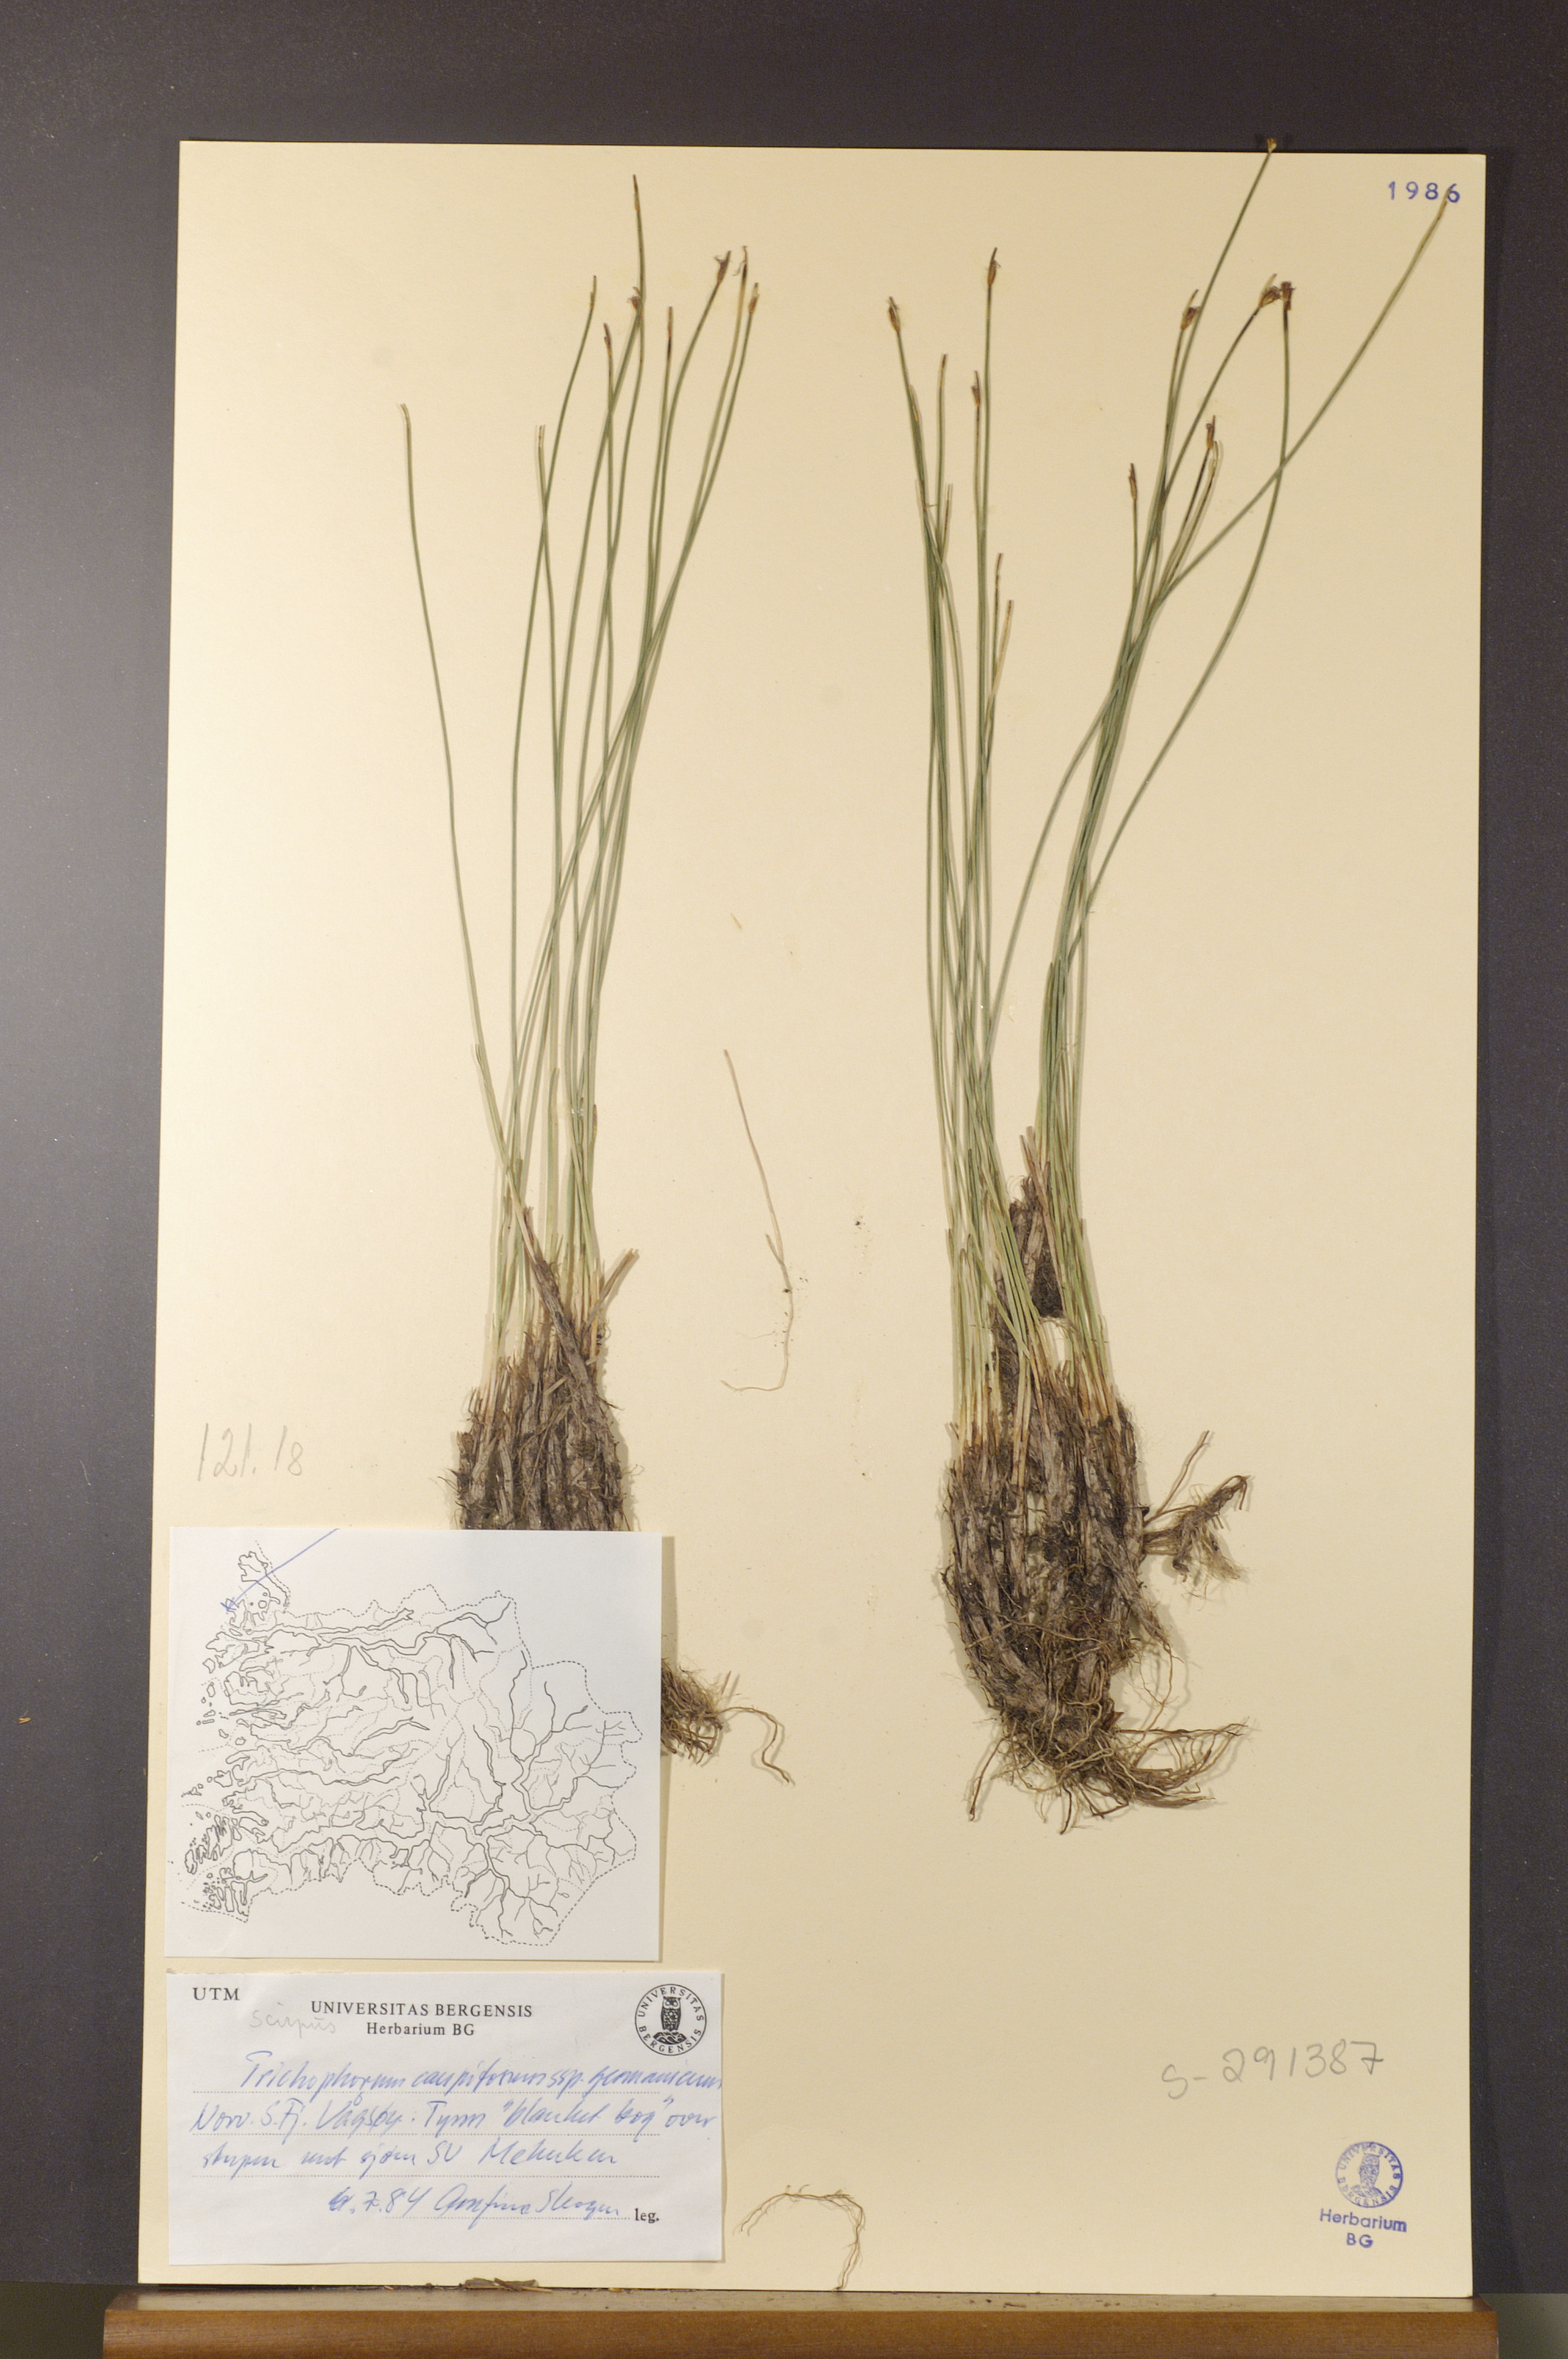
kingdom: Plantae
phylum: Tracheophyta
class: Liliopsida
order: Poales
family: Cyperaceae
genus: Trichophorum
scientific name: Trichophorum cespitosum
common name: Cespitose bulrush
